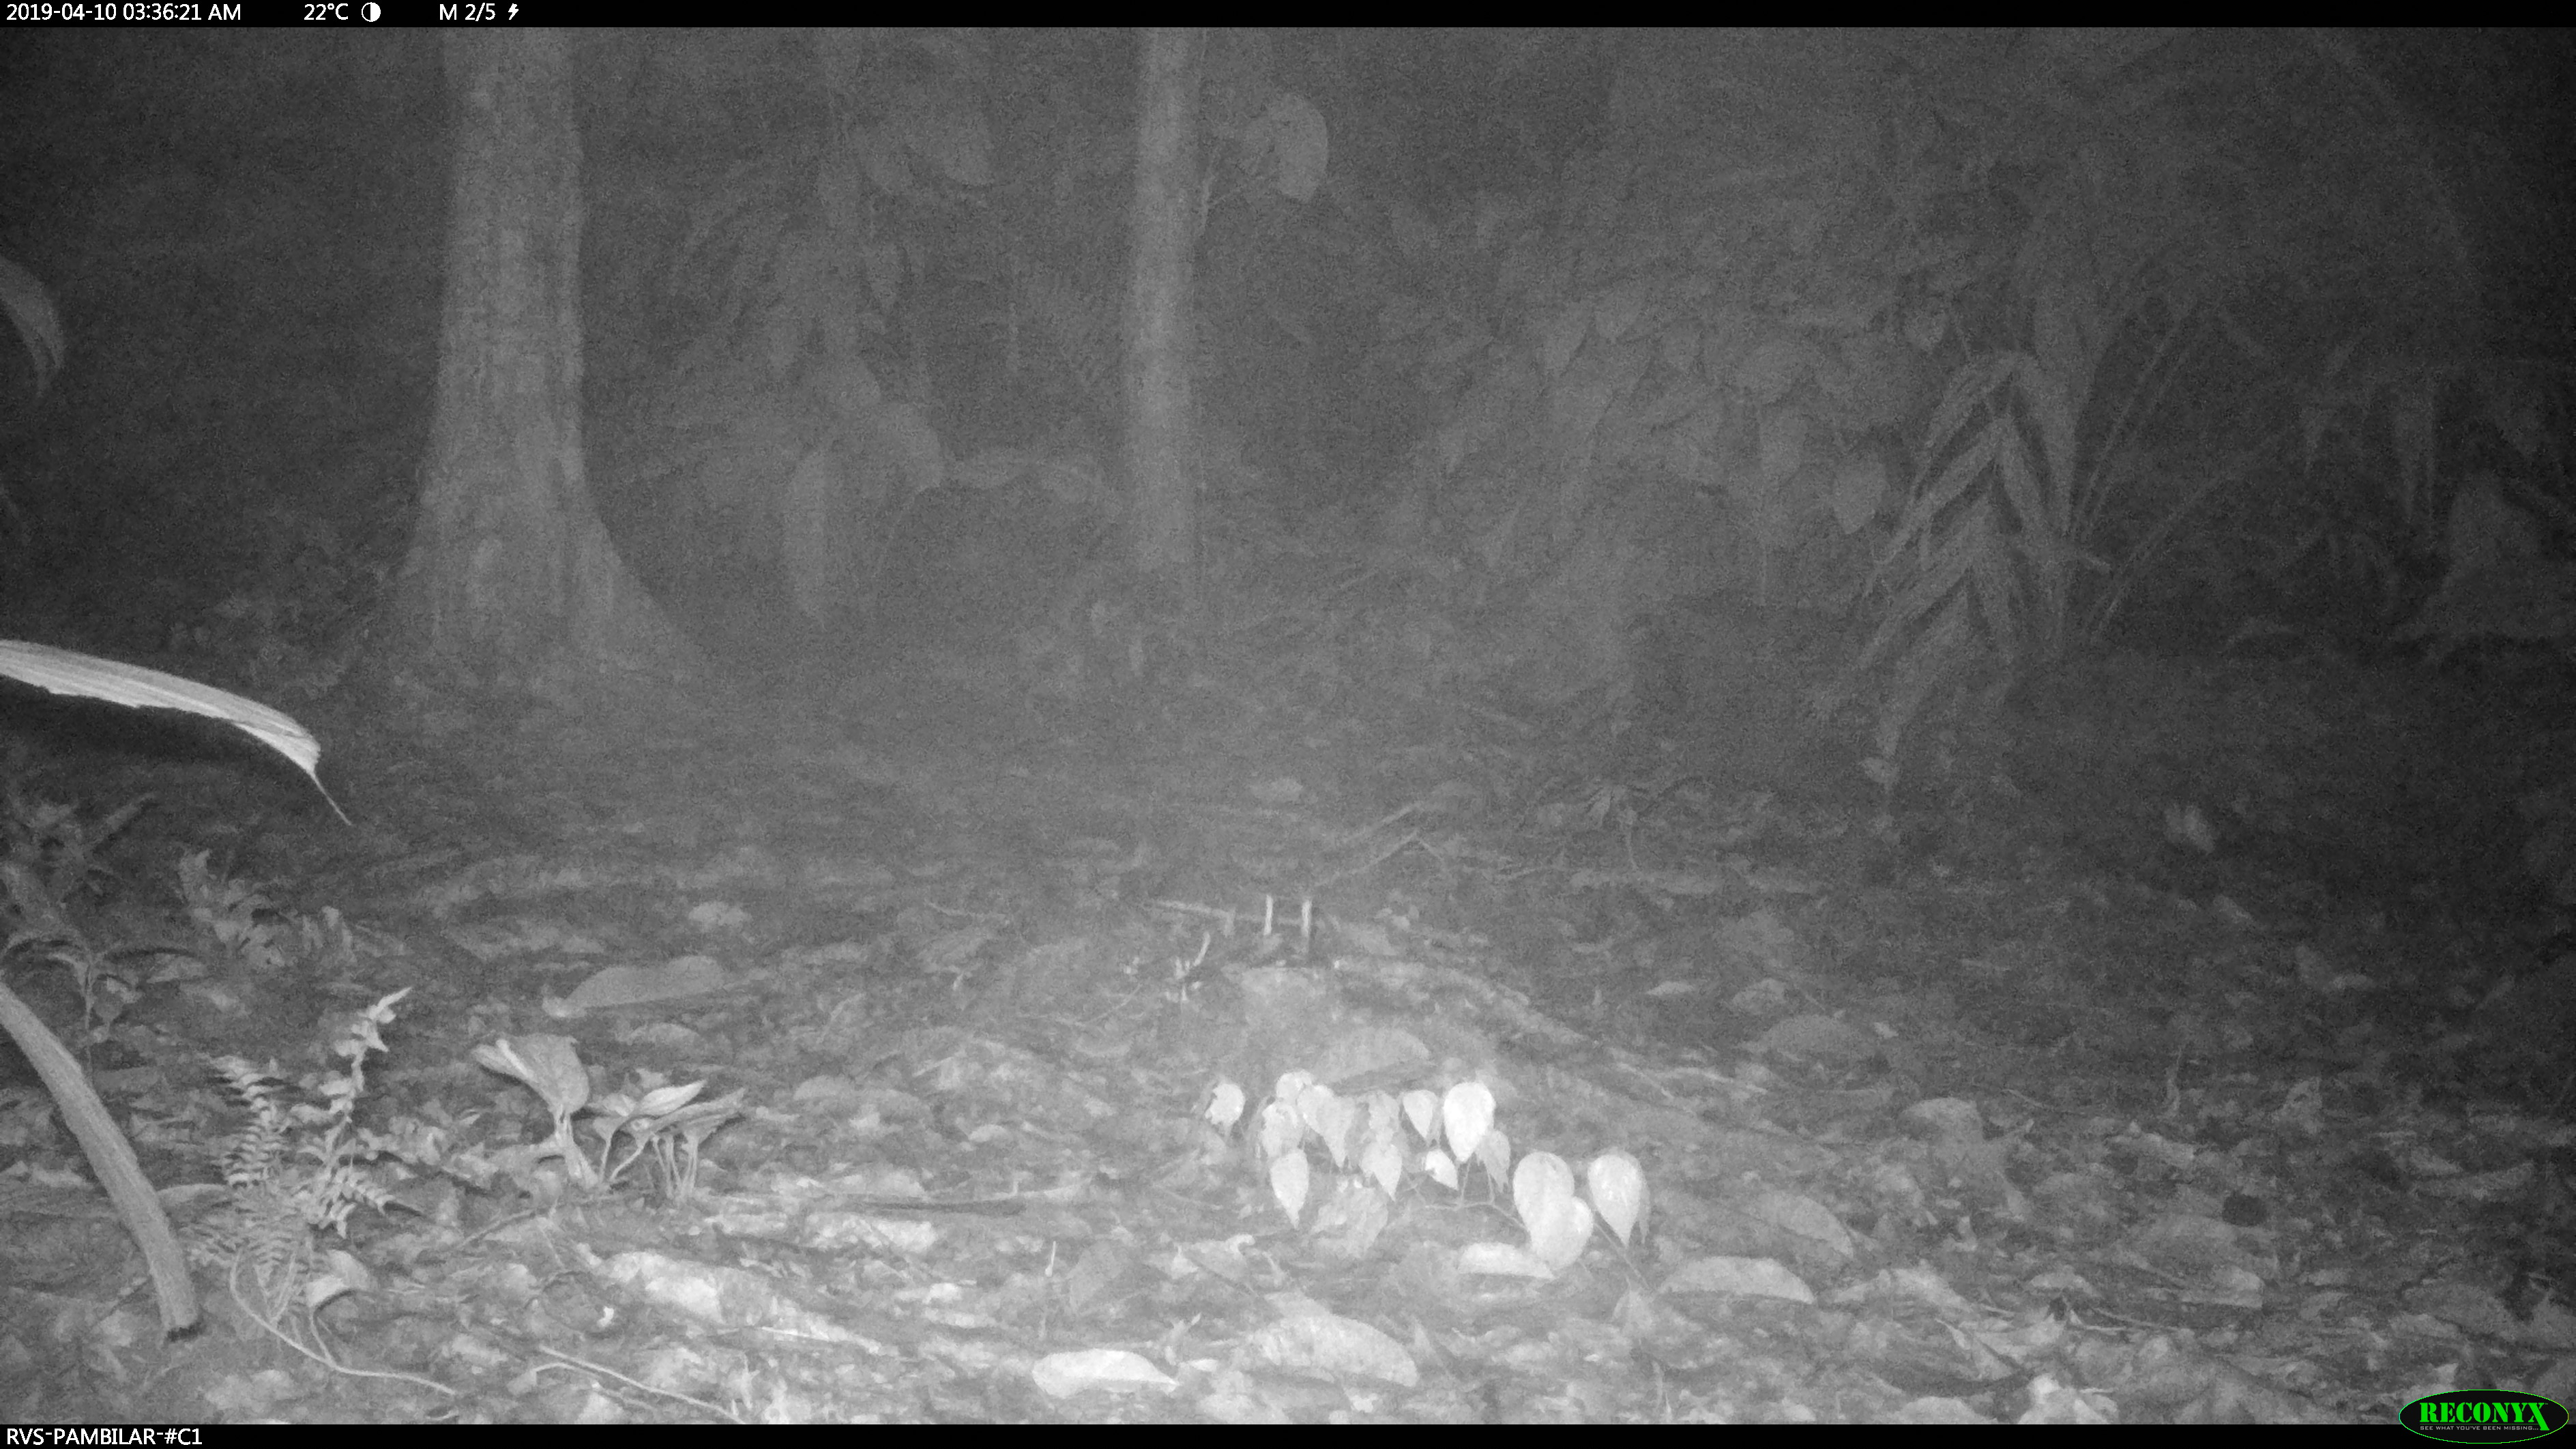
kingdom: Animalia
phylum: Chordata
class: Mammalia
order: Didelphimorphia
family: Didelphidae
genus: Didelphis
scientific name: Didelphis marsupialis
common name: Common opossum
